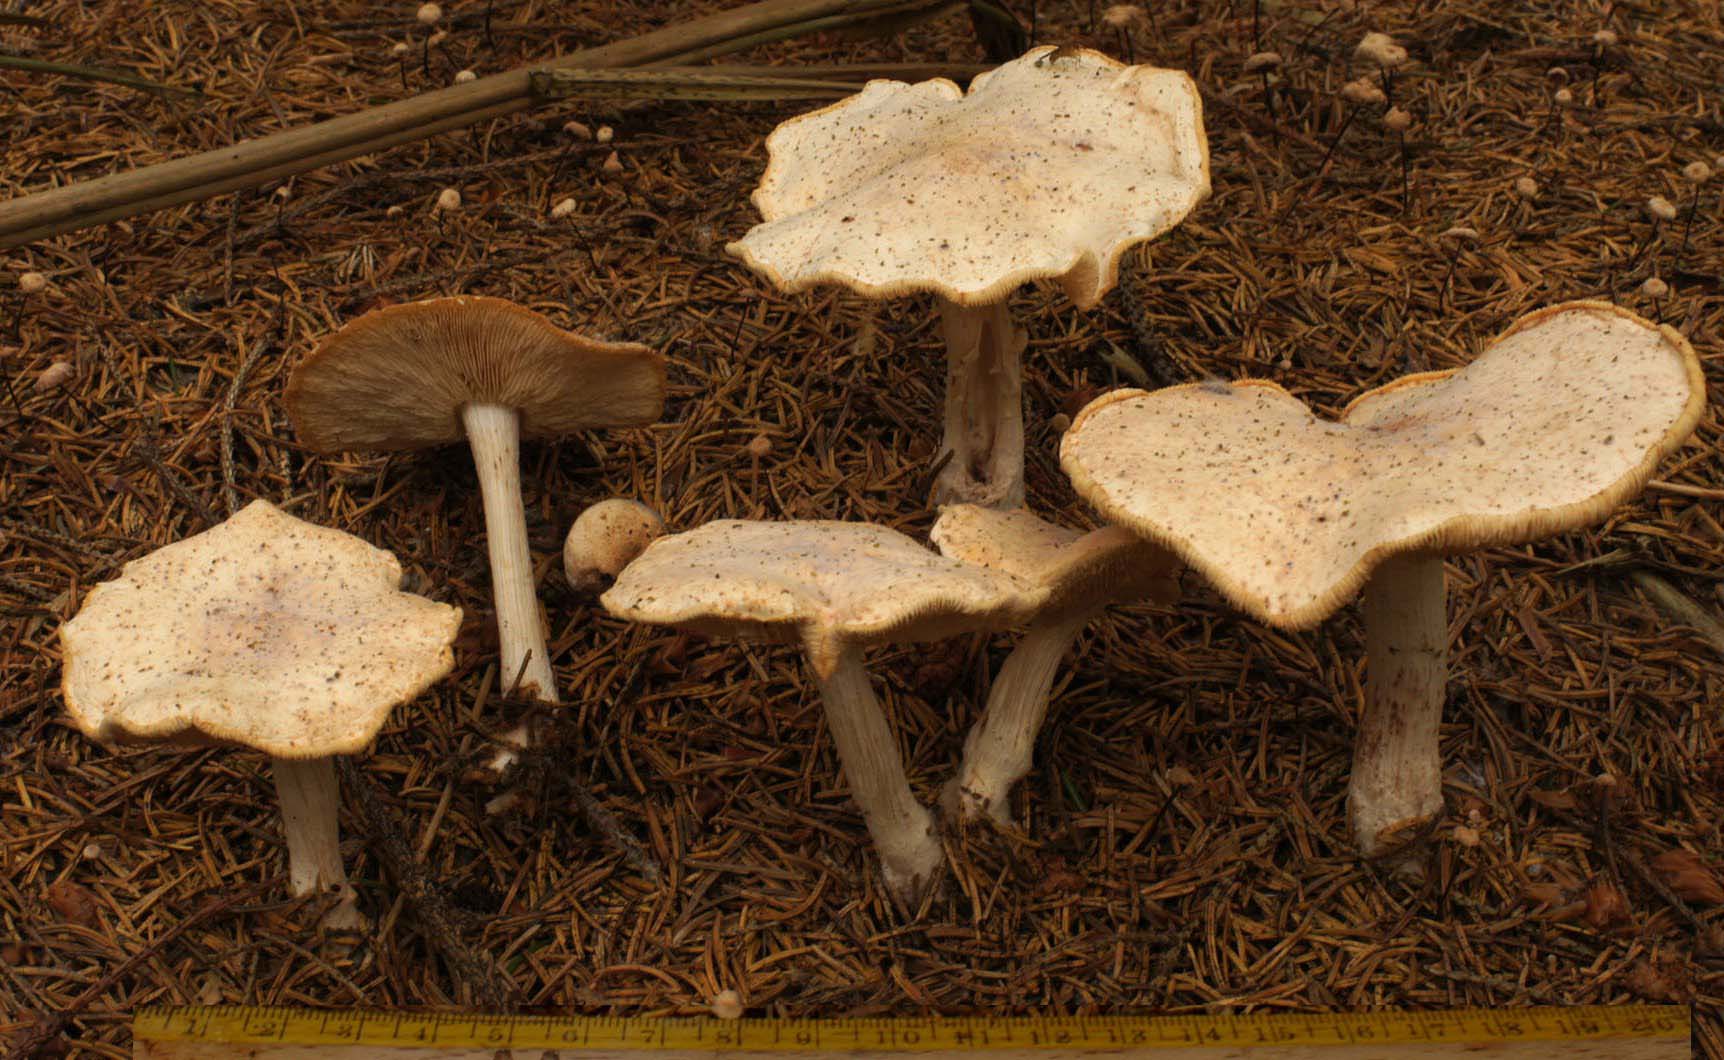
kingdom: Fungi
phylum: Basidiomycota
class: Agaricomycetes
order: Agaricales
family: Omphalotaceae
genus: Rhodocollybia
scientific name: Rhodocollybia maculata
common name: plettet fladhat
